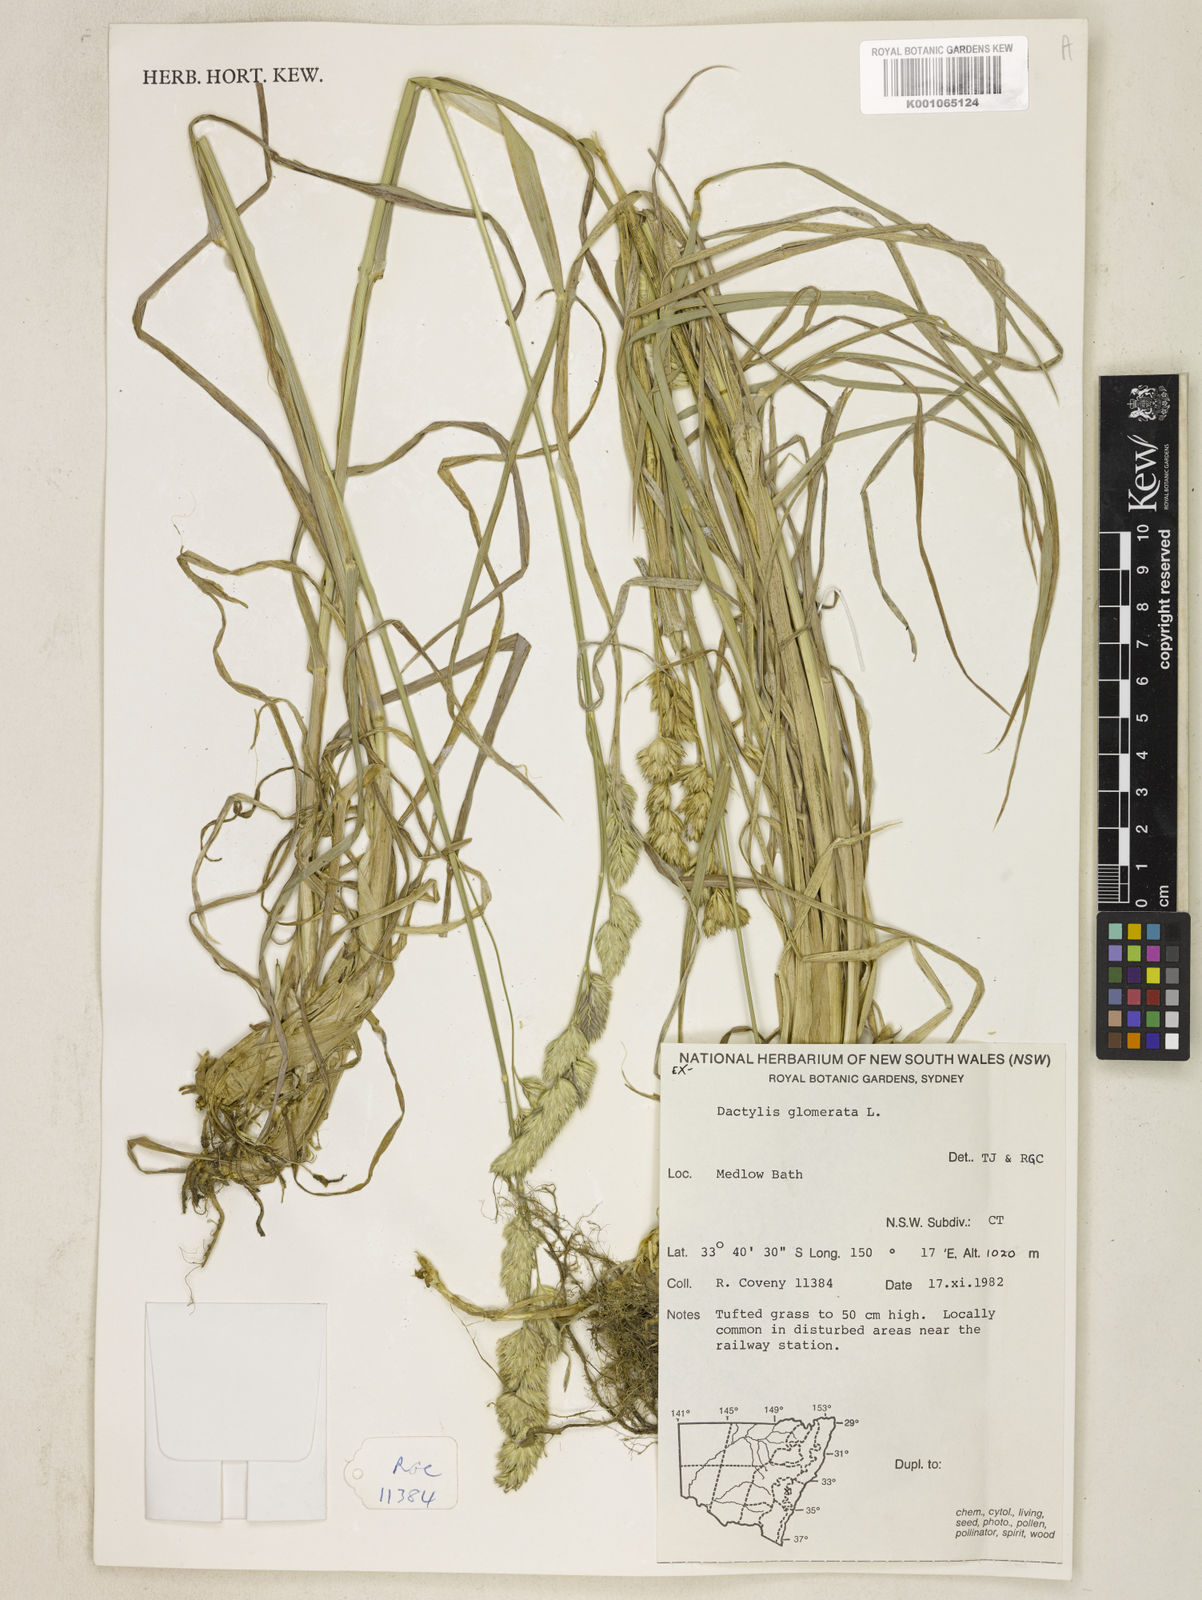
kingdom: Plantae
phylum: Tracheophyta
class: Liliopsida
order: Poales
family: Poaceae
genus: Dactylis
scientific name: Dactylis glomerata
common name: Orchardgrass
